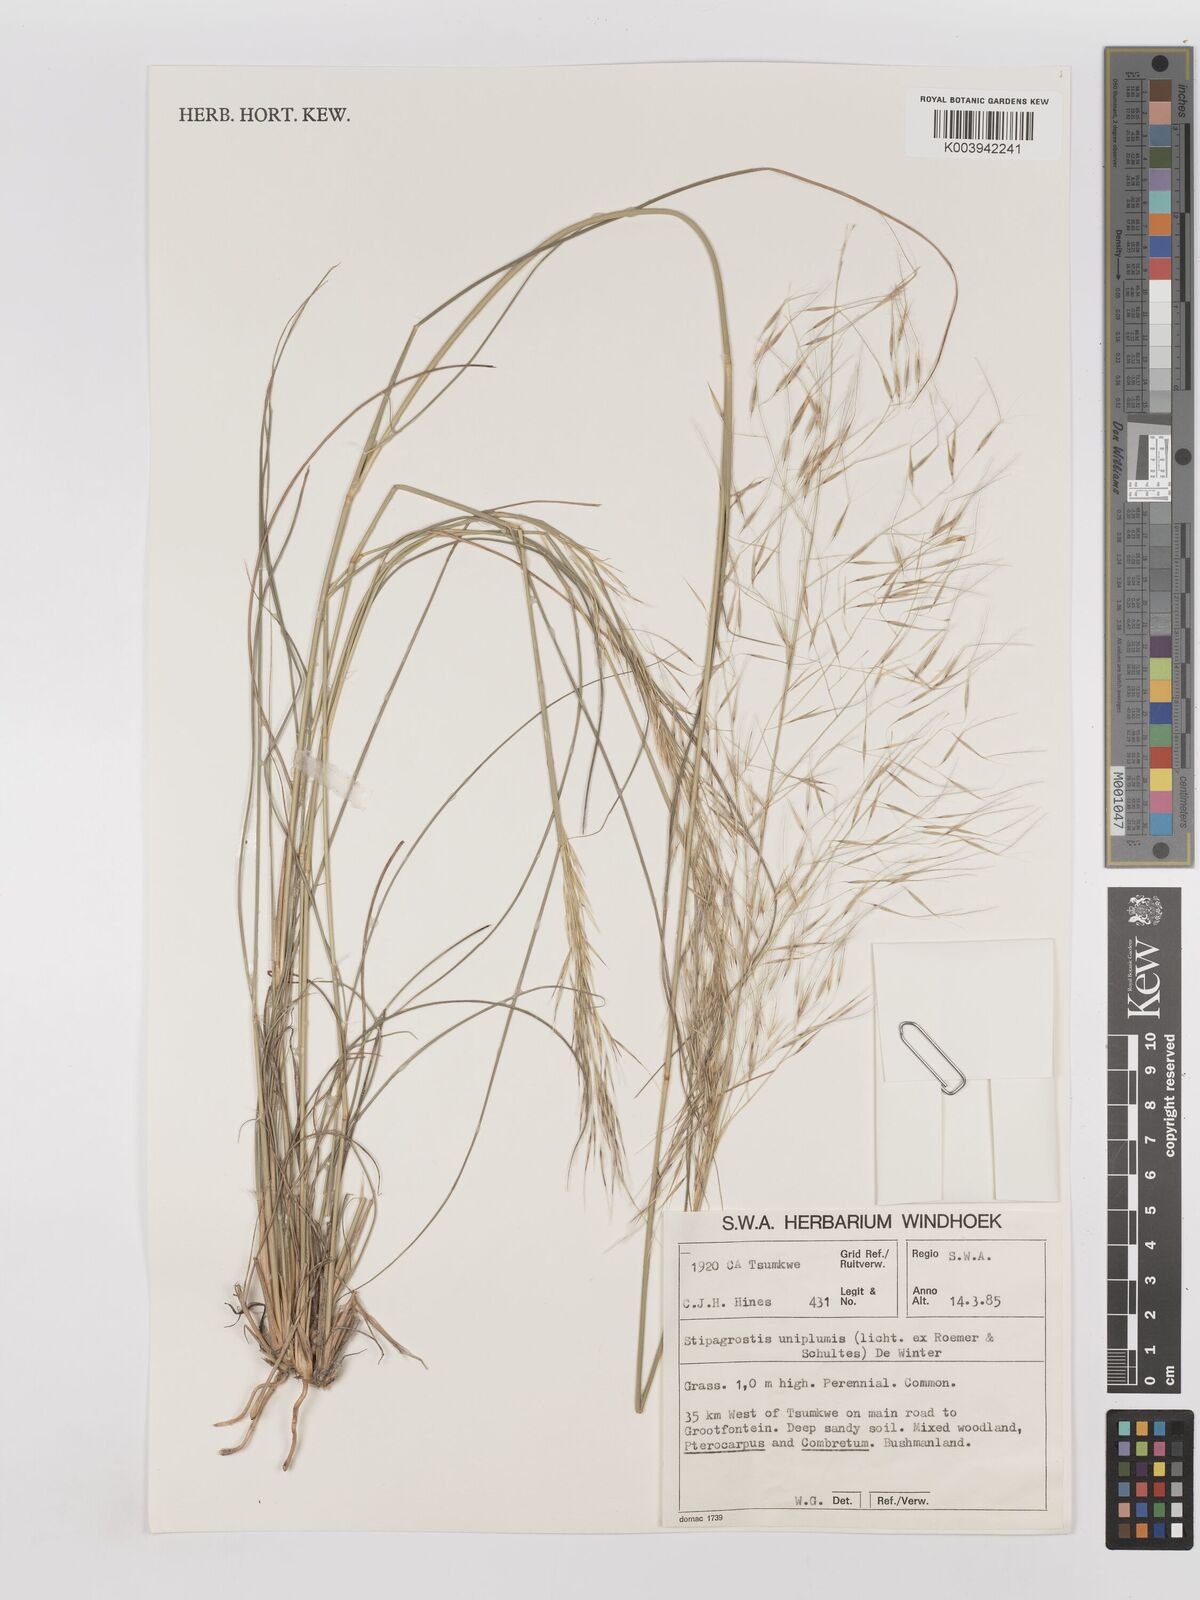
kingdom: Plantae
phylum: Tracheophyta
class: Liliopsida
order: Poales
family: Poaceae
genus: Stipagrostis
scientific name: Stipagrostis uniplumis
